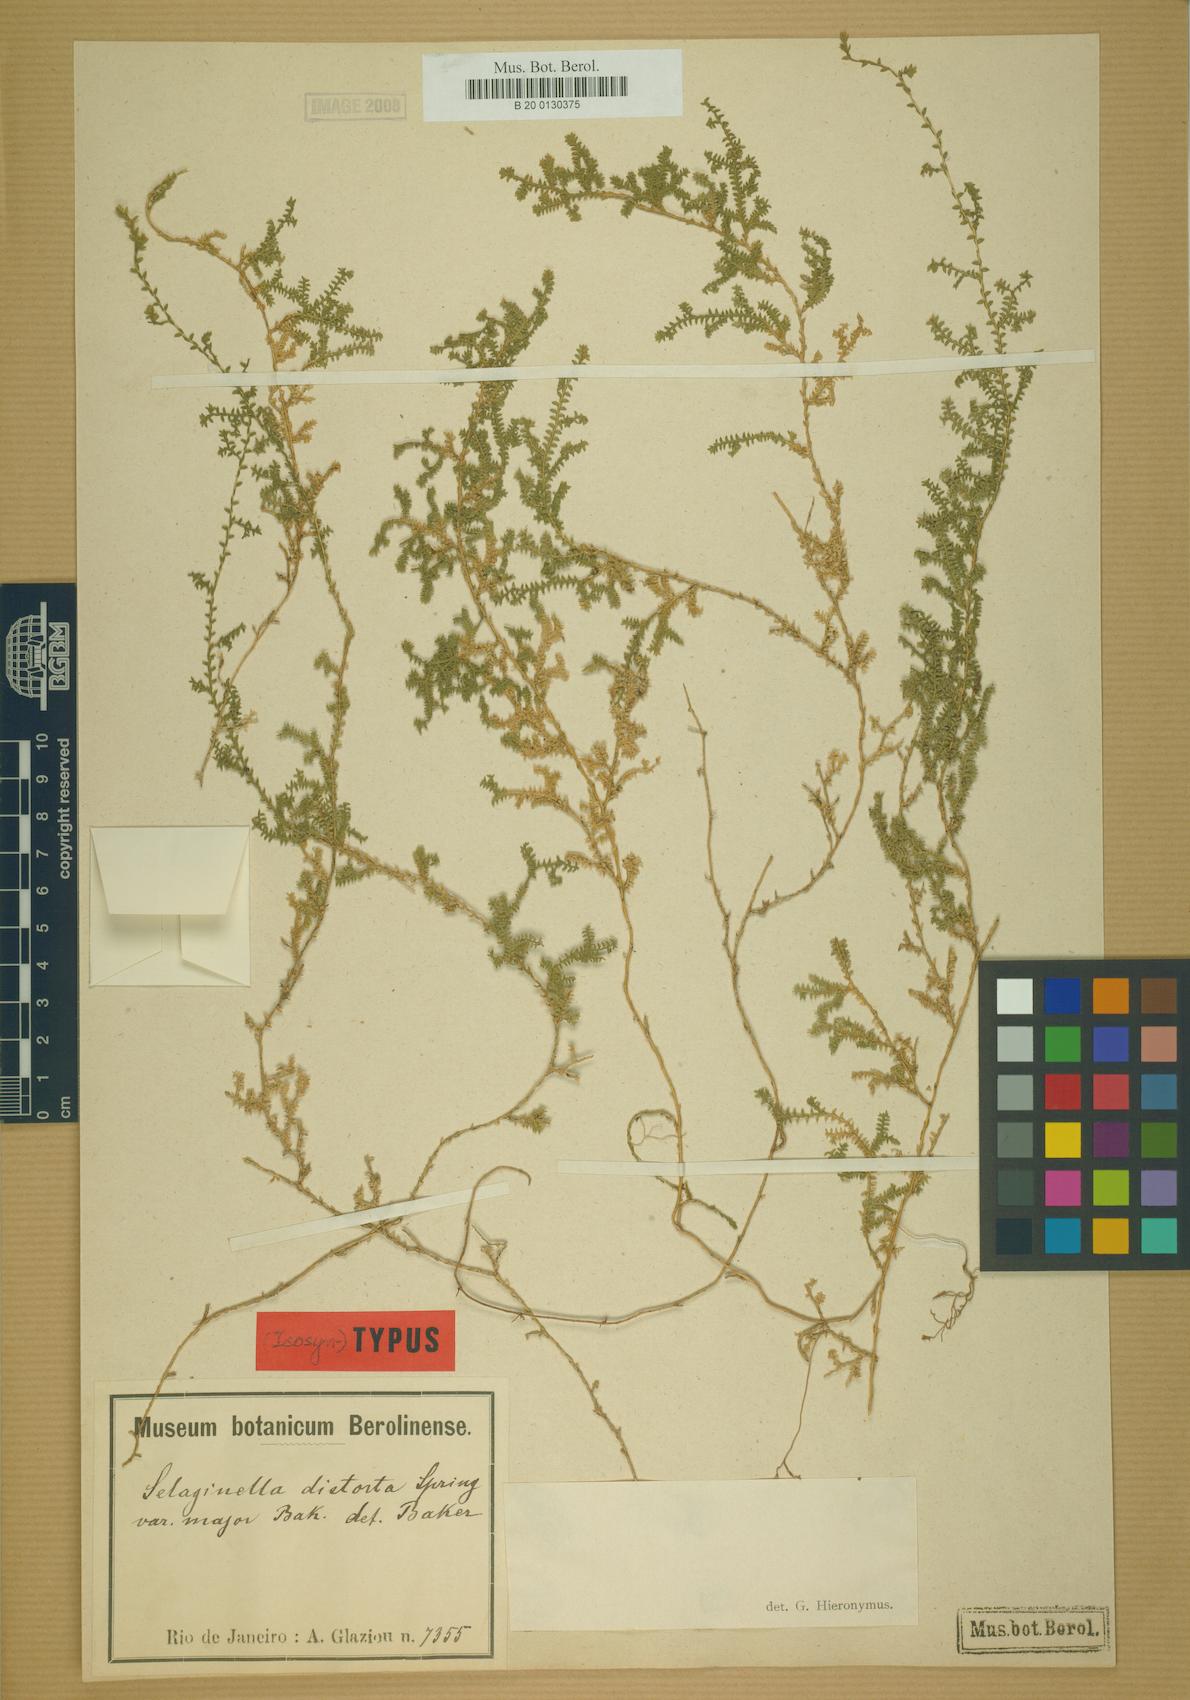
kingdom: Plantae
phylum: Tracheophyta
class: Lycopodiopsida
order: Selaginellales
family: Selaginellaceae
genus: Selaginella
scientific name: Selaginella marginata
